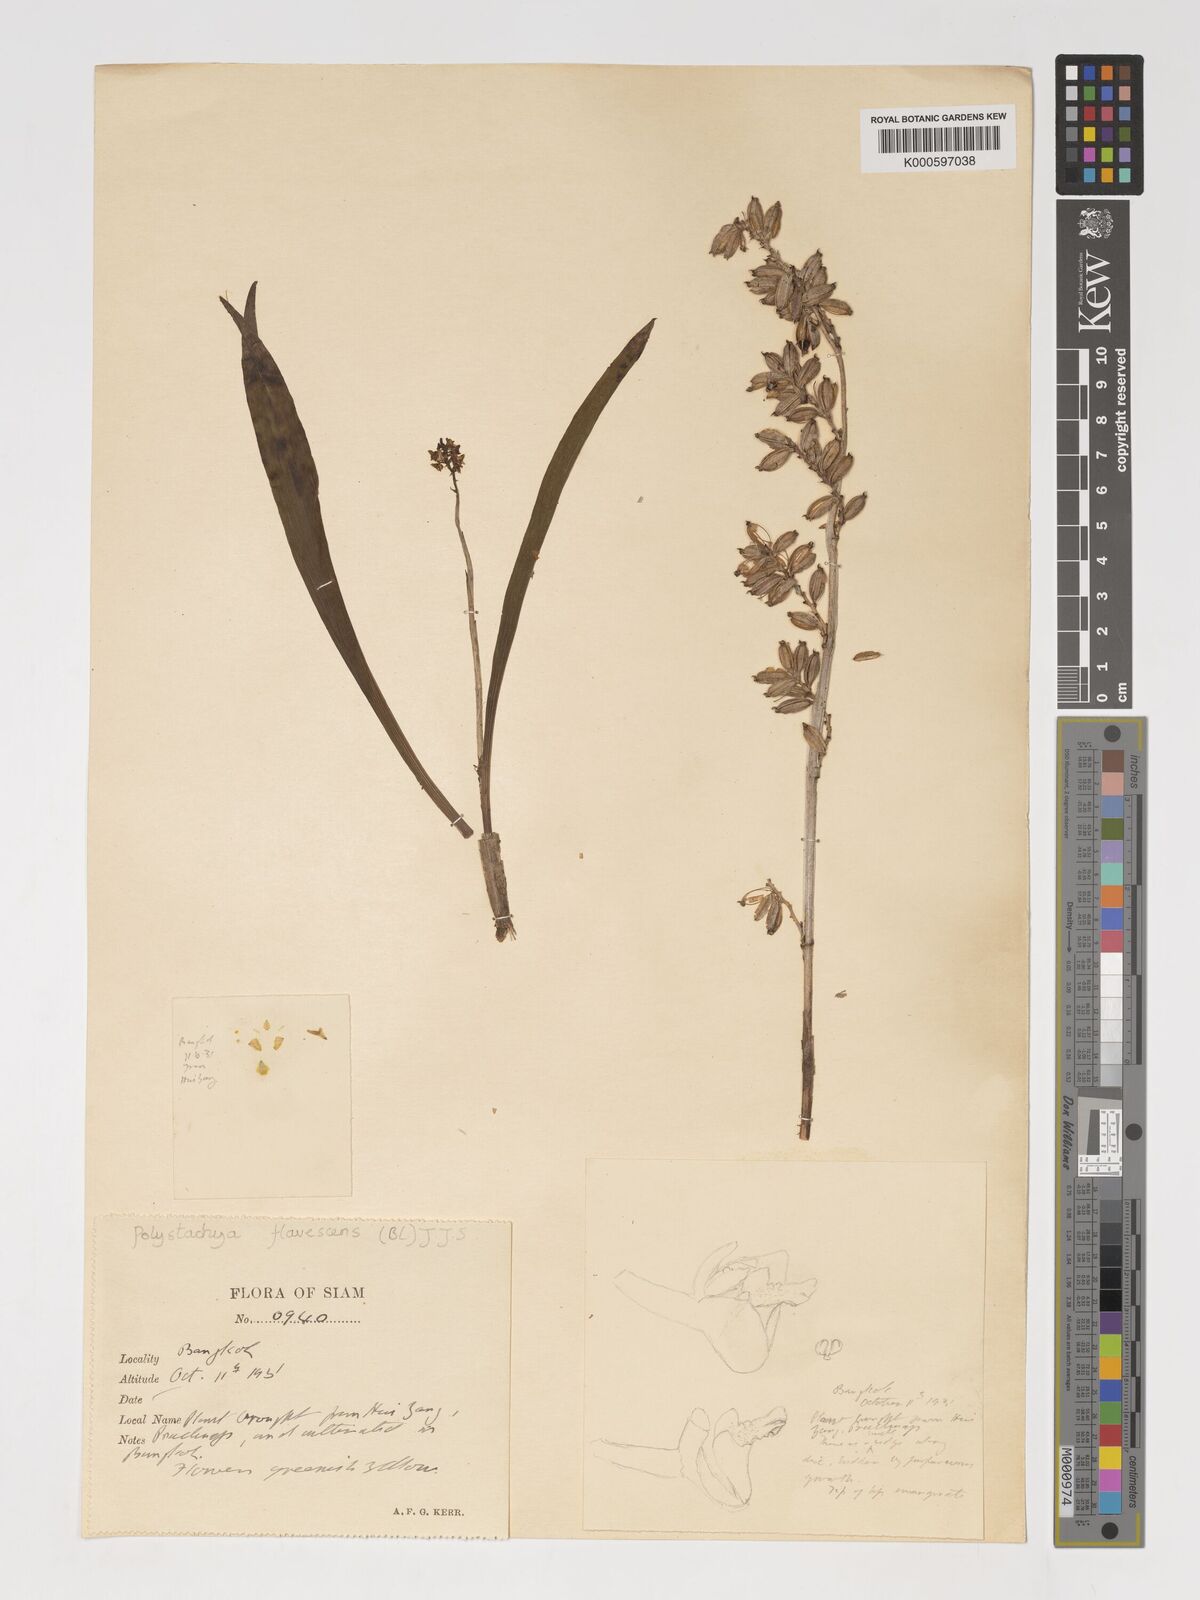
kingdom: Plantae
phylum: Tracheophyta
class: Liliopsida
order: Asparagales
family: Orchidaceae
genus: Polystachya
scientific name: Polystachya concreta
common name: Greater yellowspike orchid
